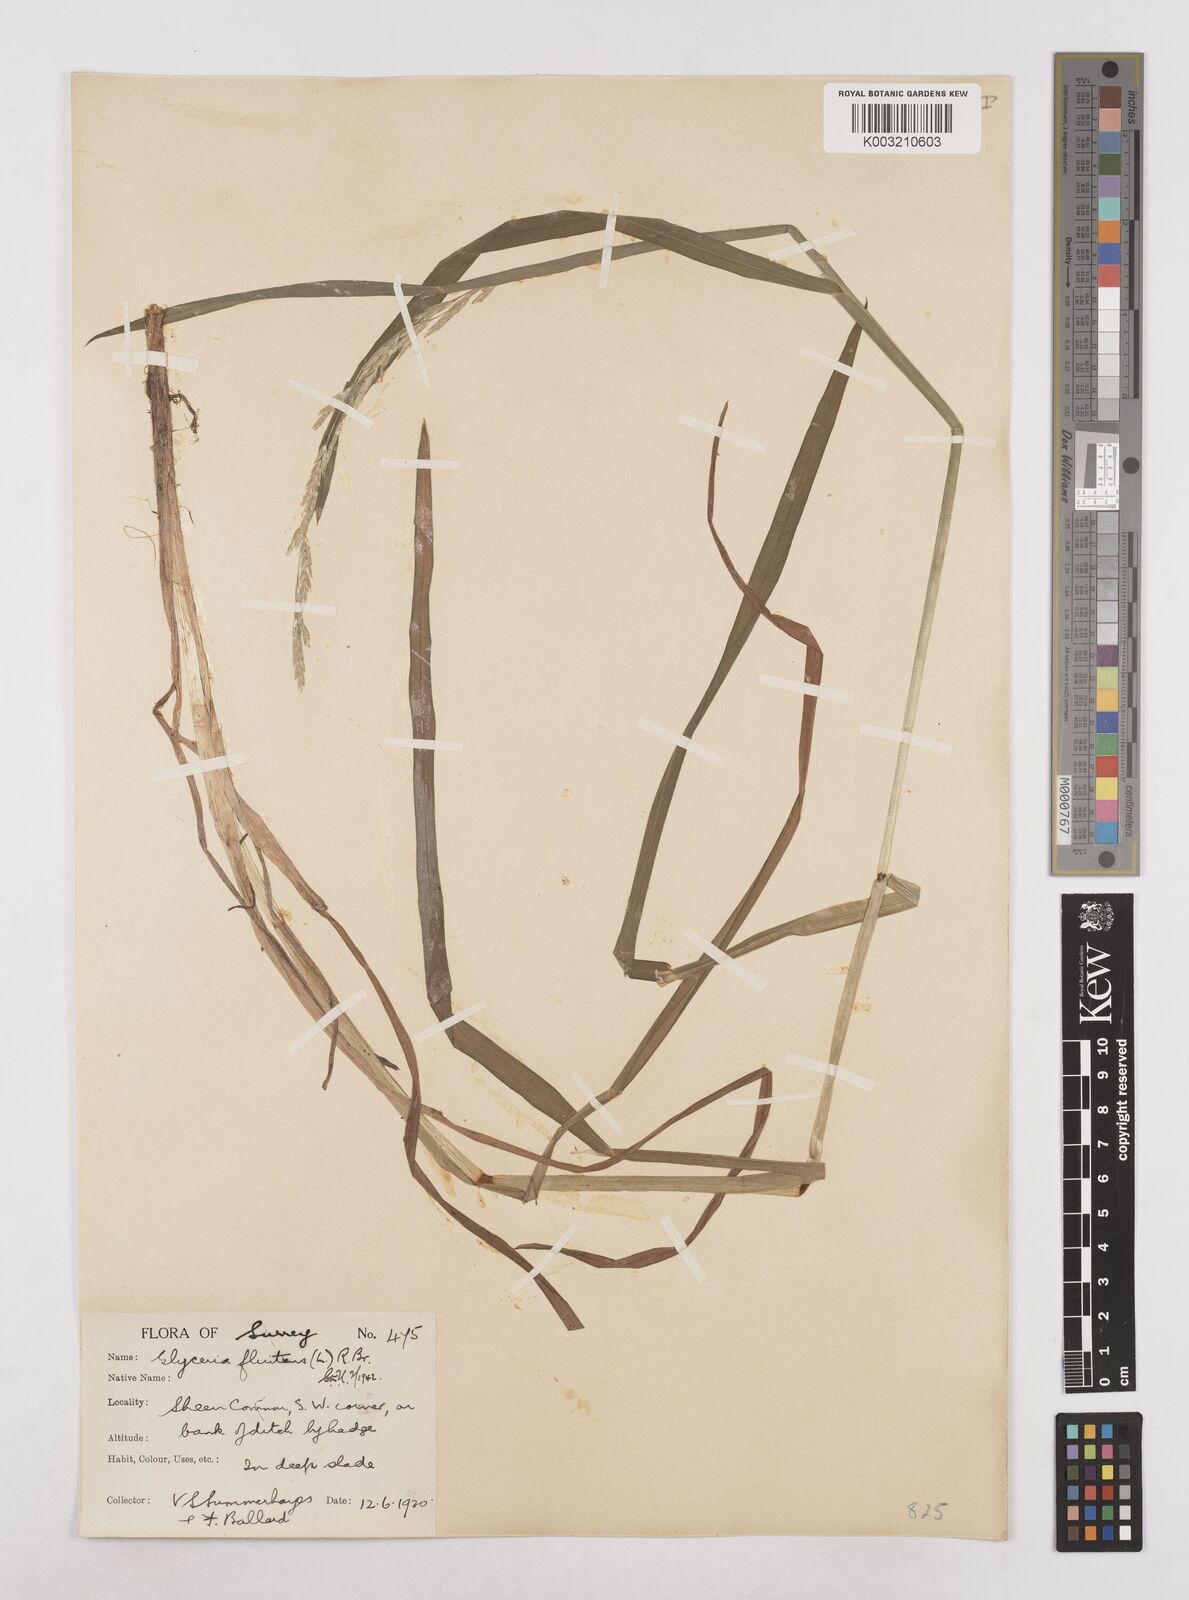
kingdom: Plantae
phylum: Tracheophyta
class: Liliopsida
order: Poales
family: Poaceae
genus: Glyceria
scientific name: Glyceria fluitans
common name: Floating sweet-grass
